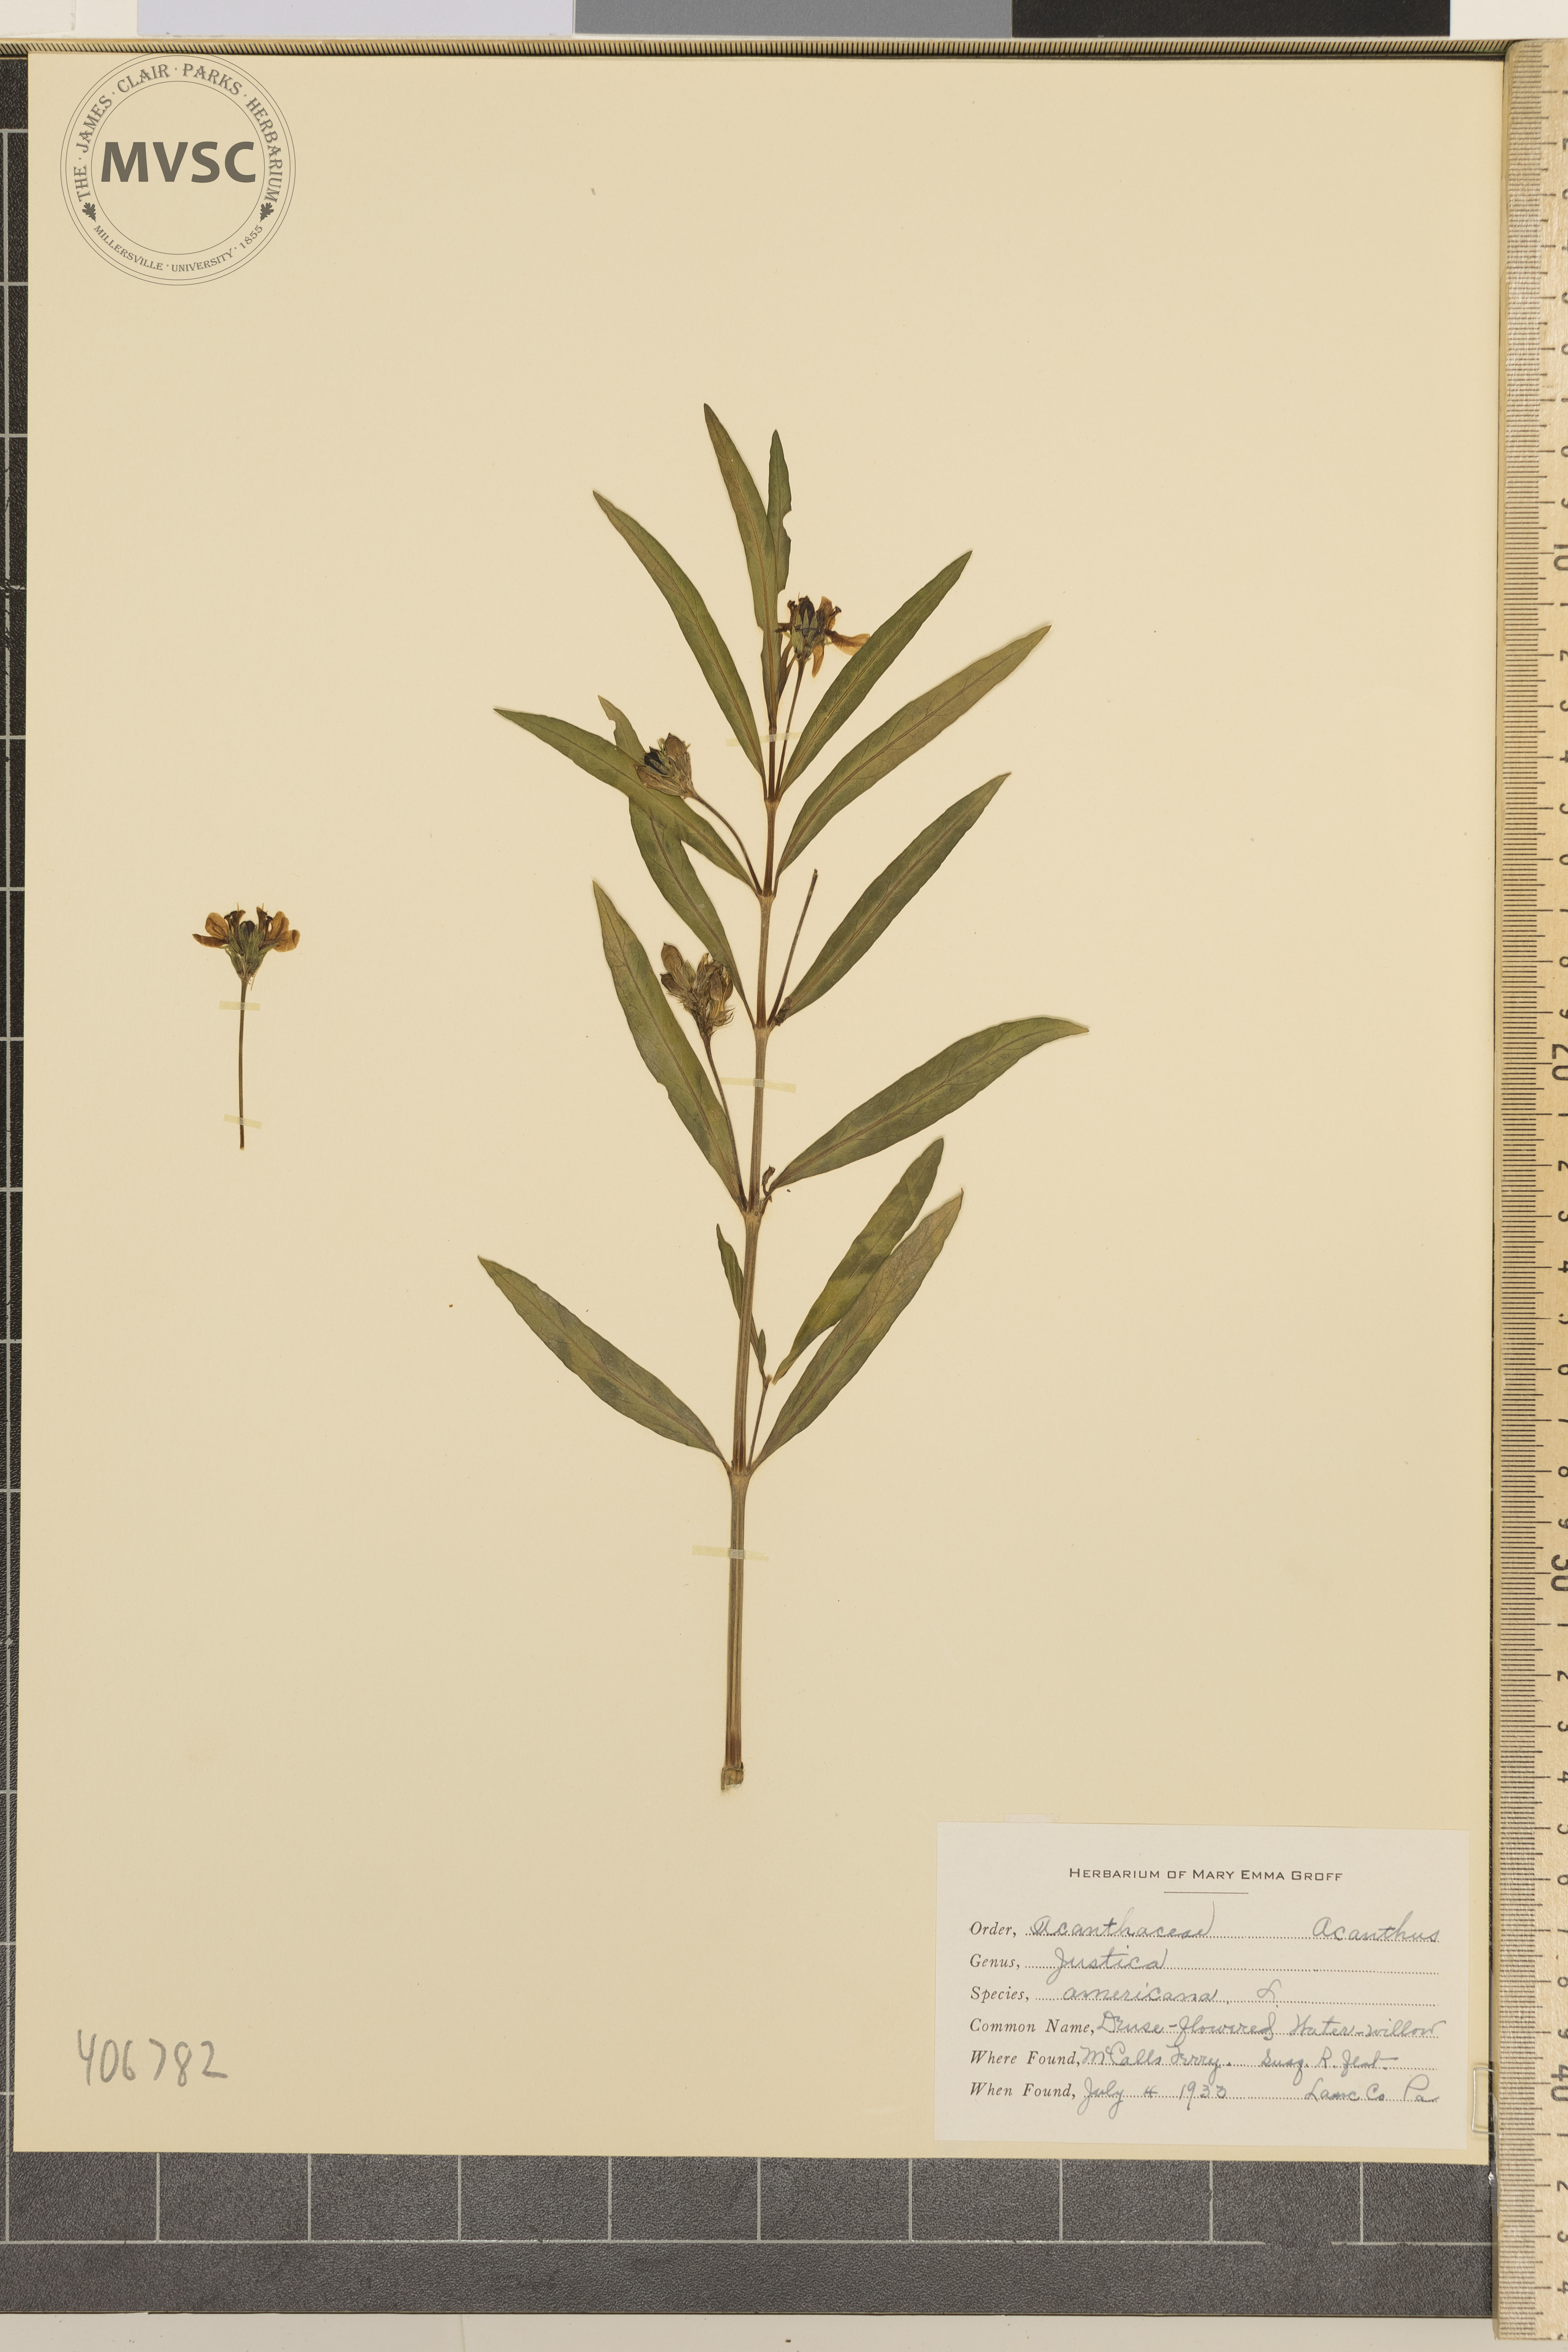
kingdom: Plantae
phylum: Tracheophyta
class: Magnoliopsida
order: Lamiales
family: Acanthaceae
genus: Dianthera
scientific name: Dianthera americana
